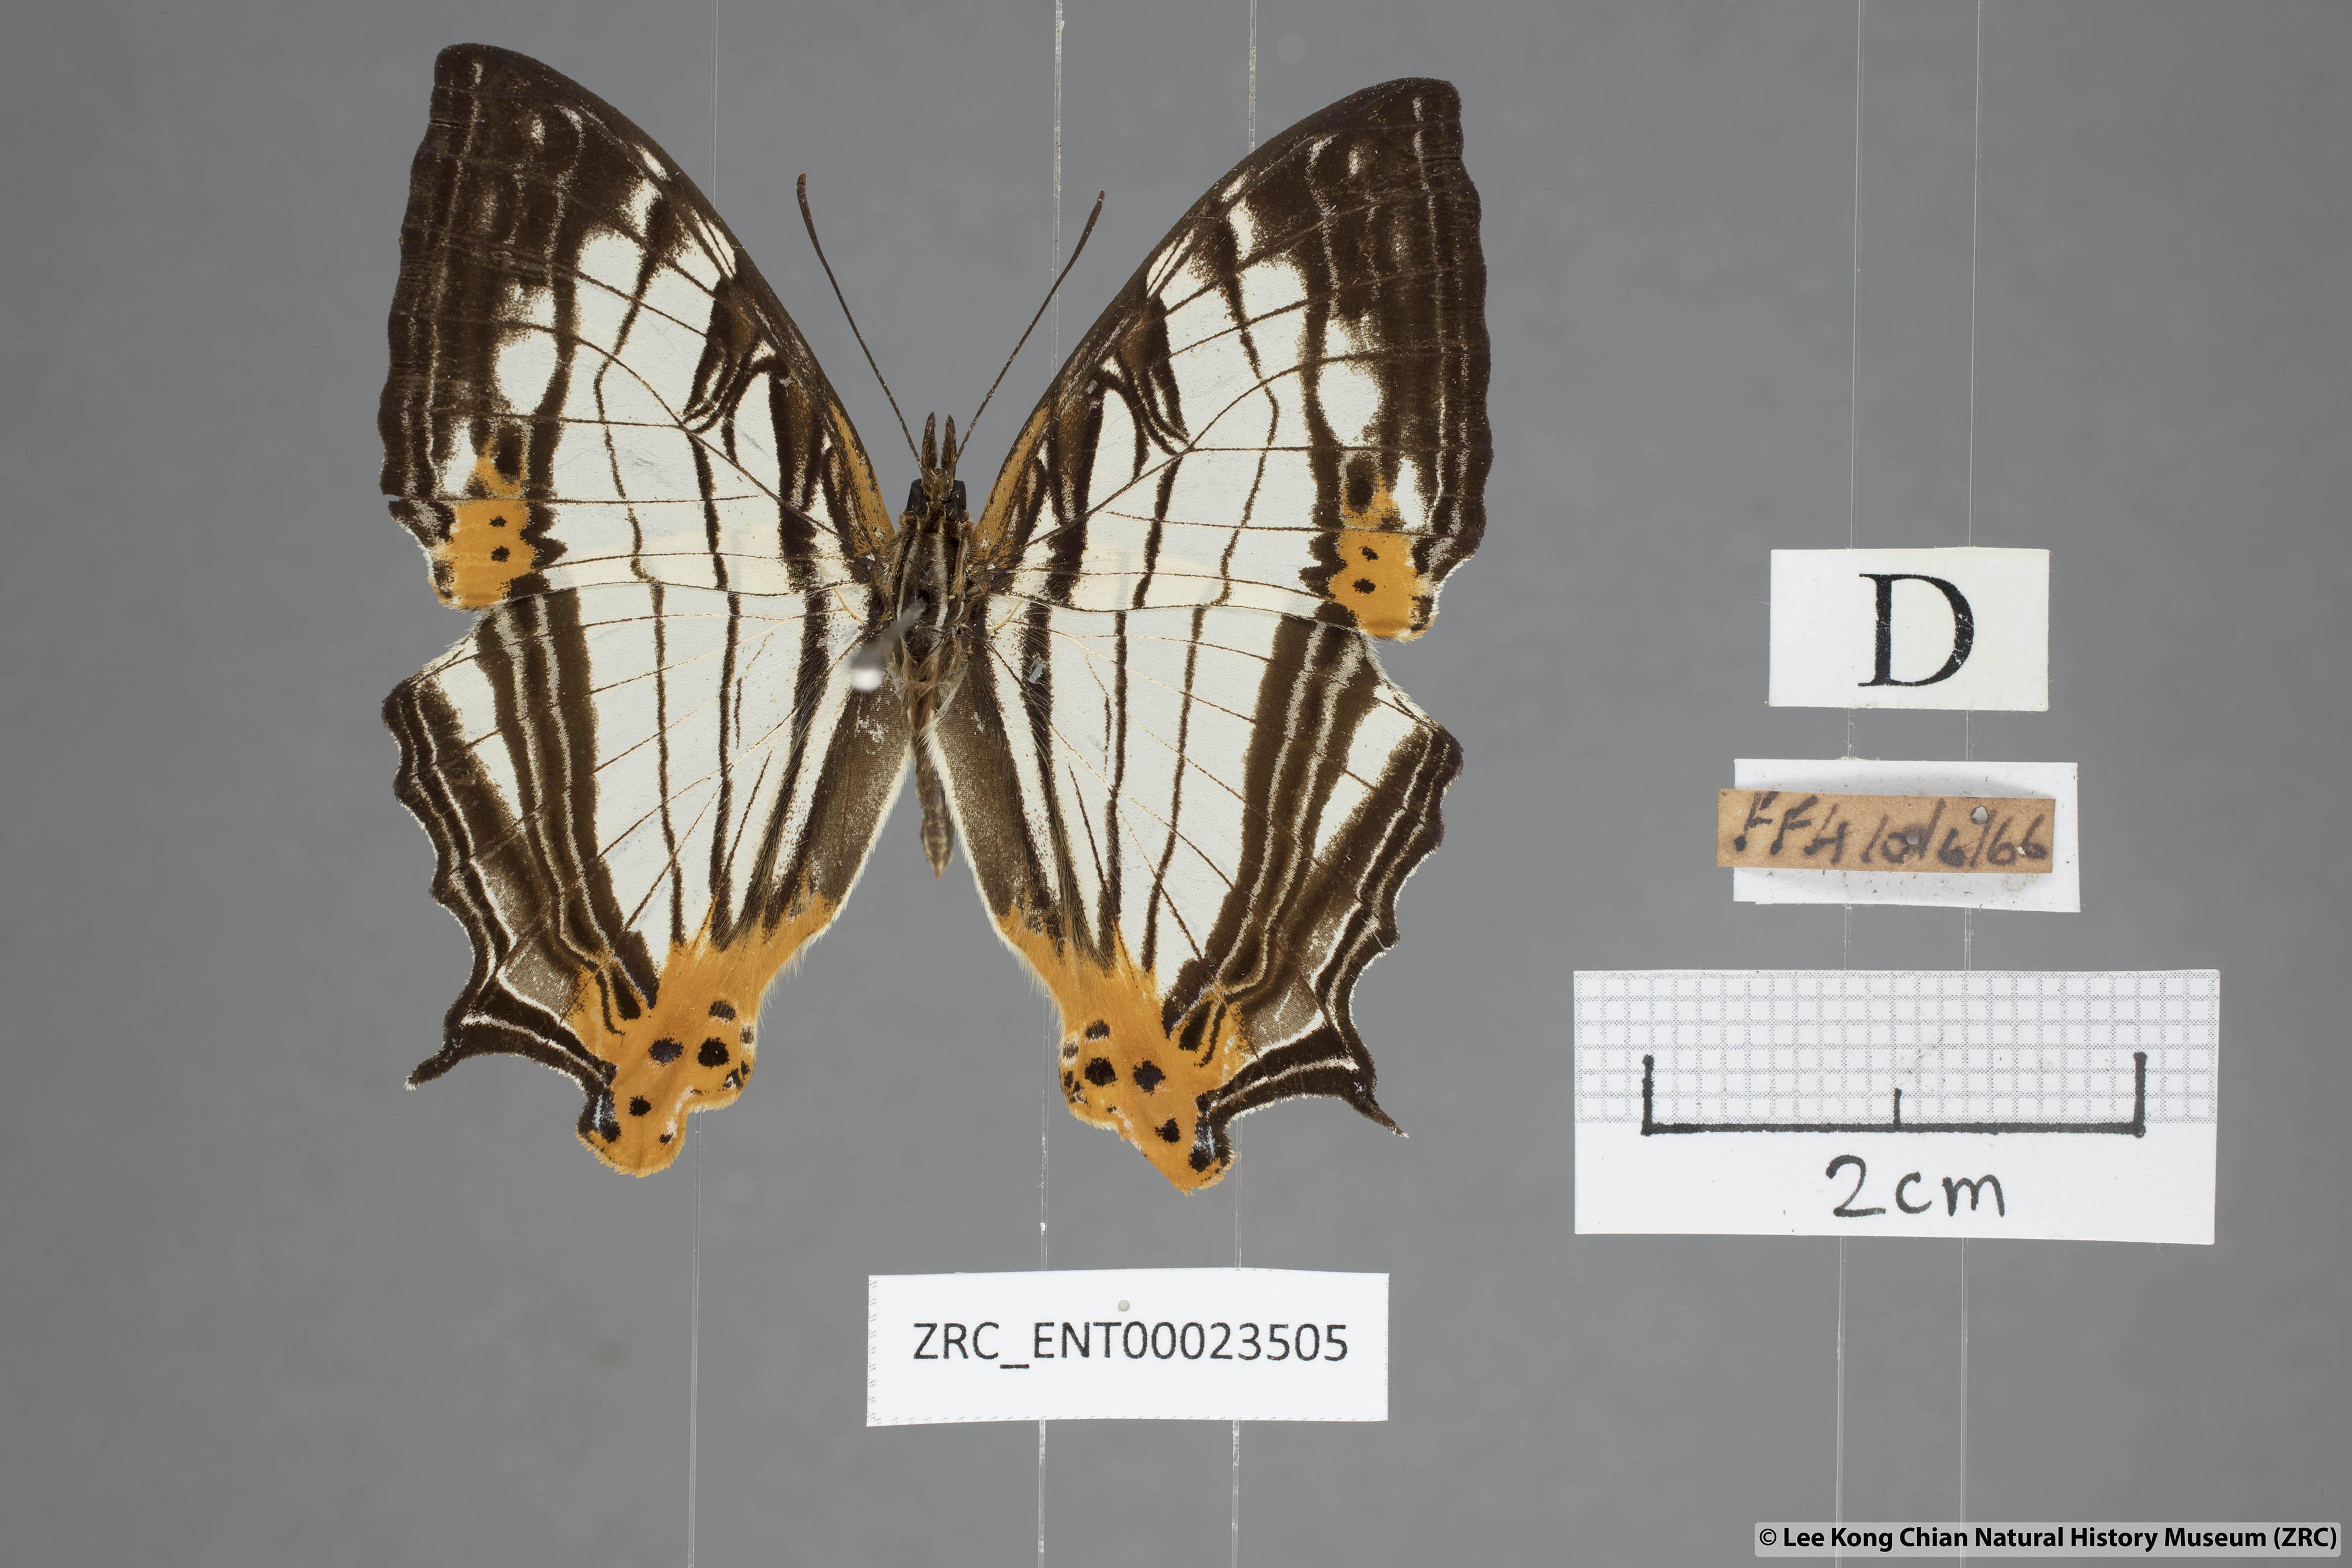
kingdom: Animalia
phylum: Arthropoda
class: Insecta
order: Lepidoptera
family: Nymphalidae
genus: Cyrestis
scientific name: Cyrestis maenalis
